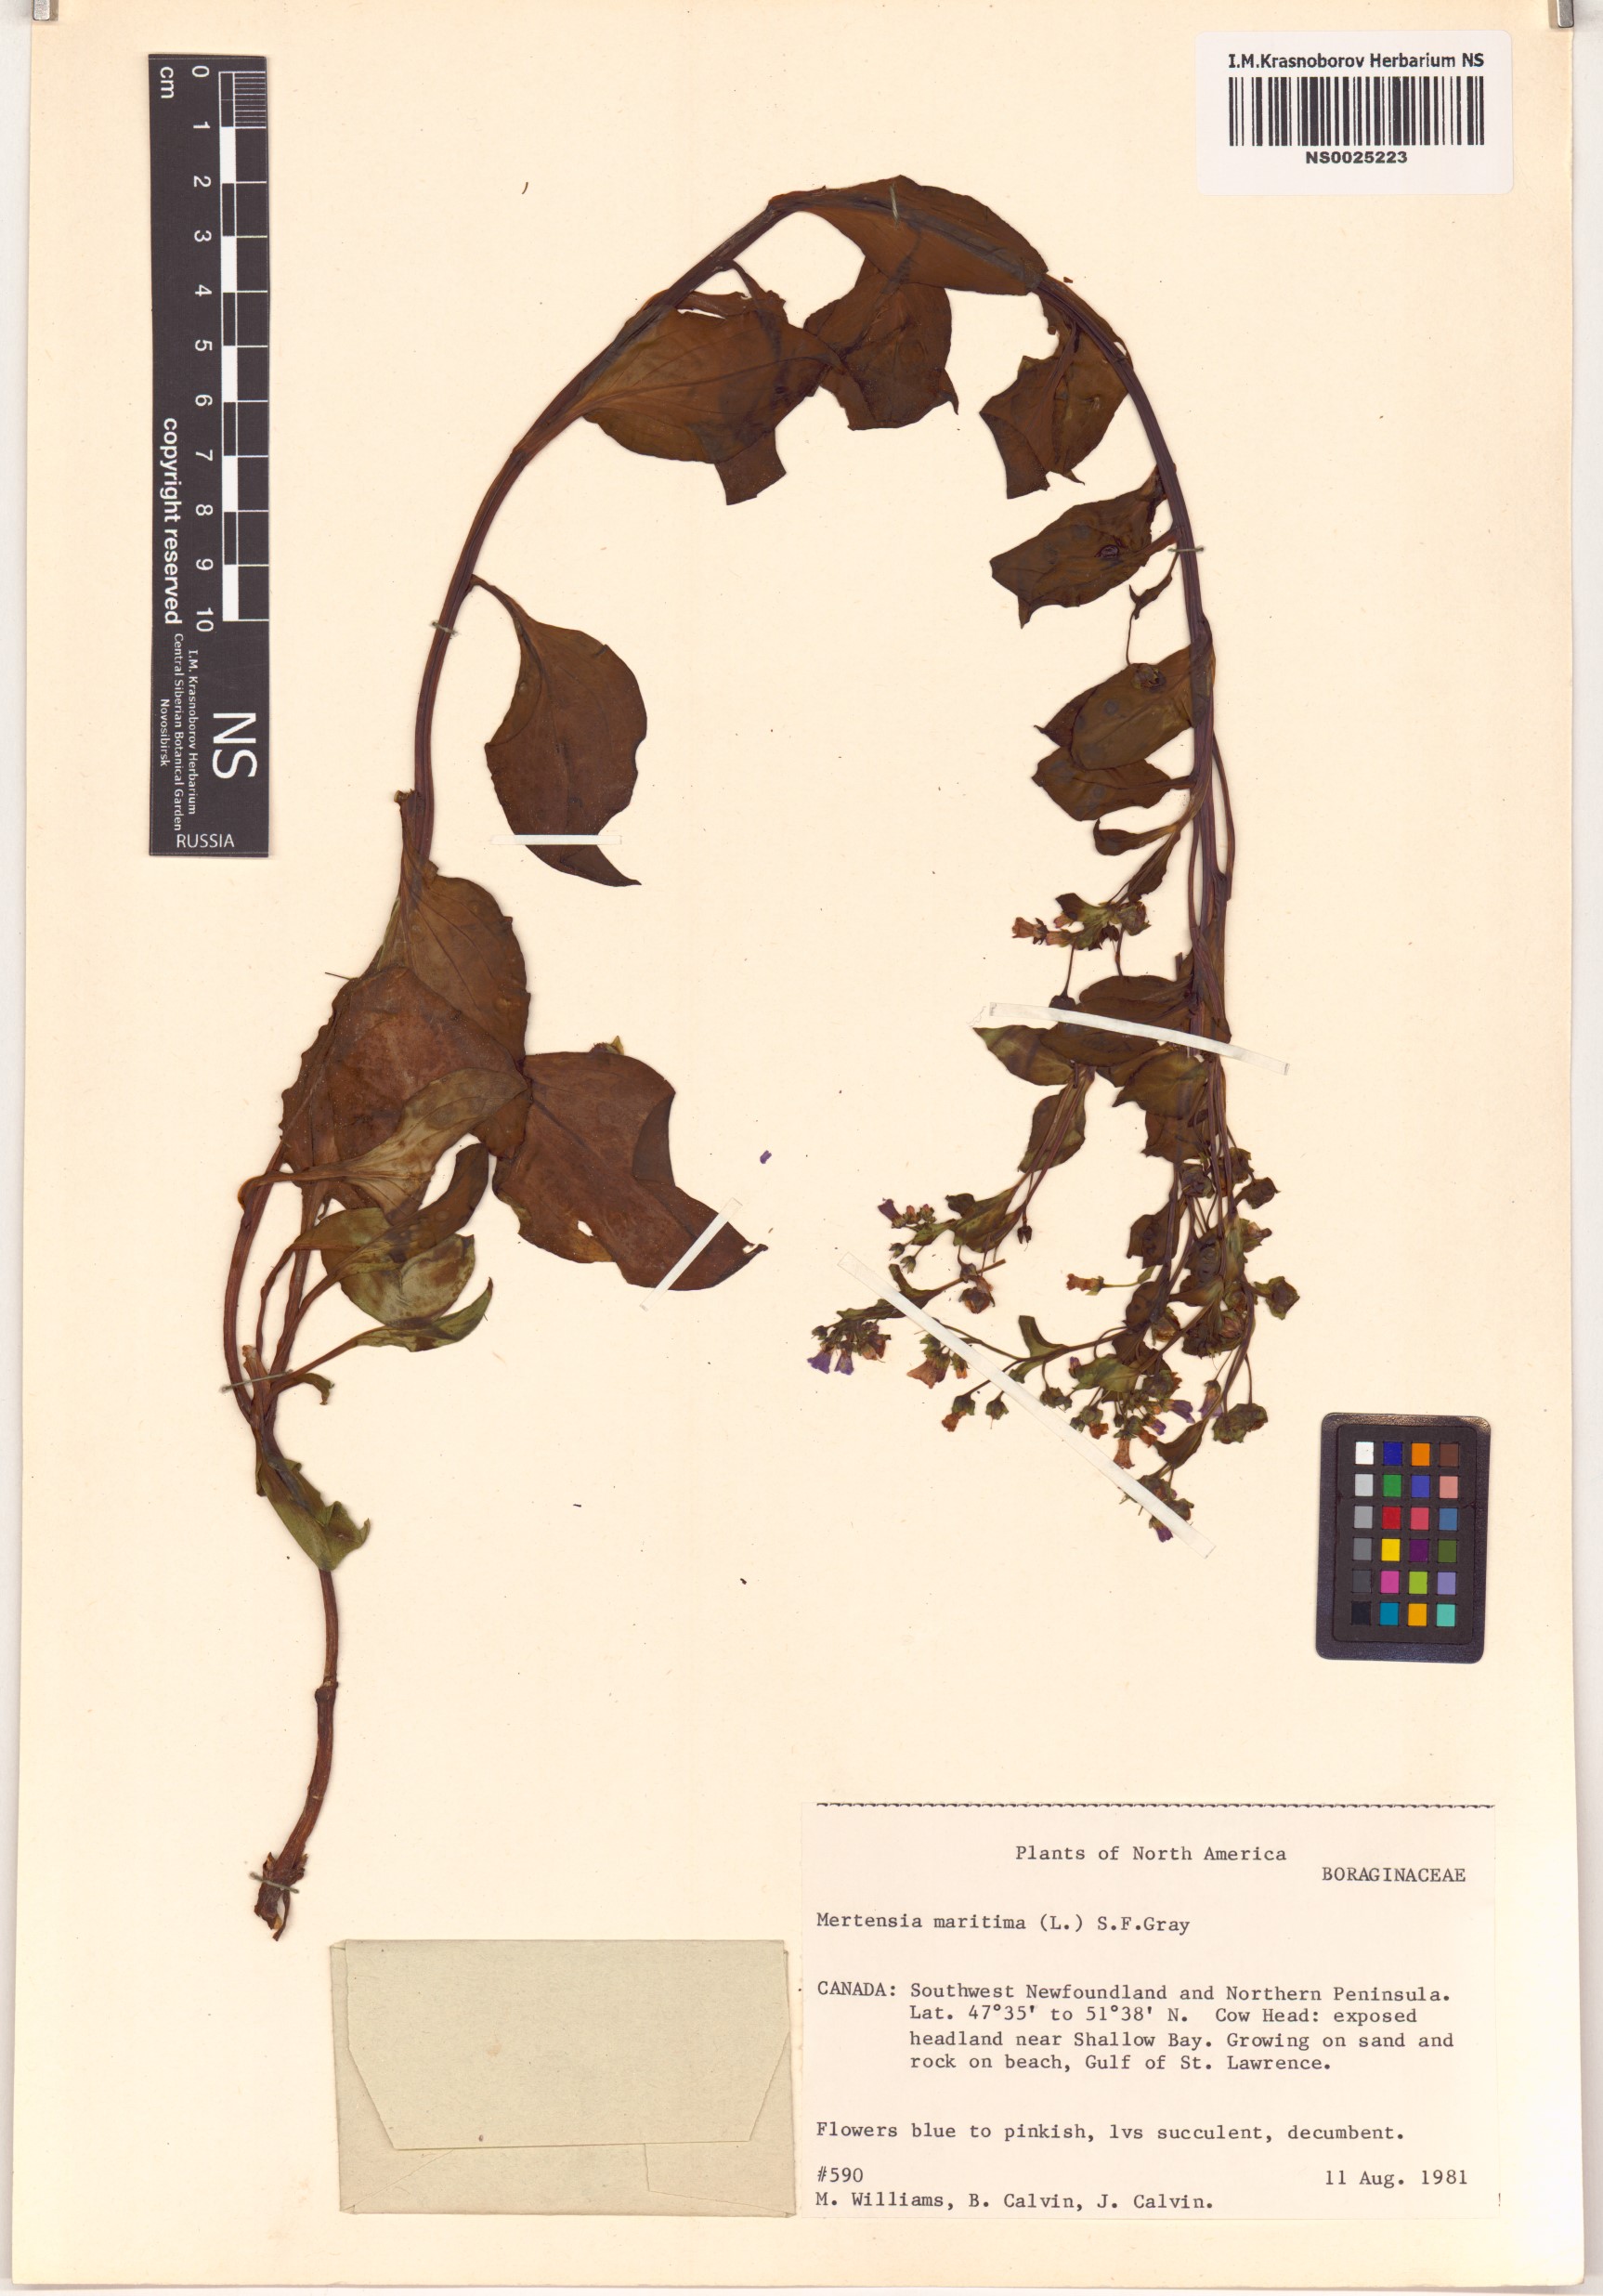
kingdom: Plantae
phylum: Tracheophyta
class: Magnoliopsida
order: Boraginales
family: Boraginaceae
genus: Mertensia
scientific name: Mertensia maritima
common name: Oysterplant
